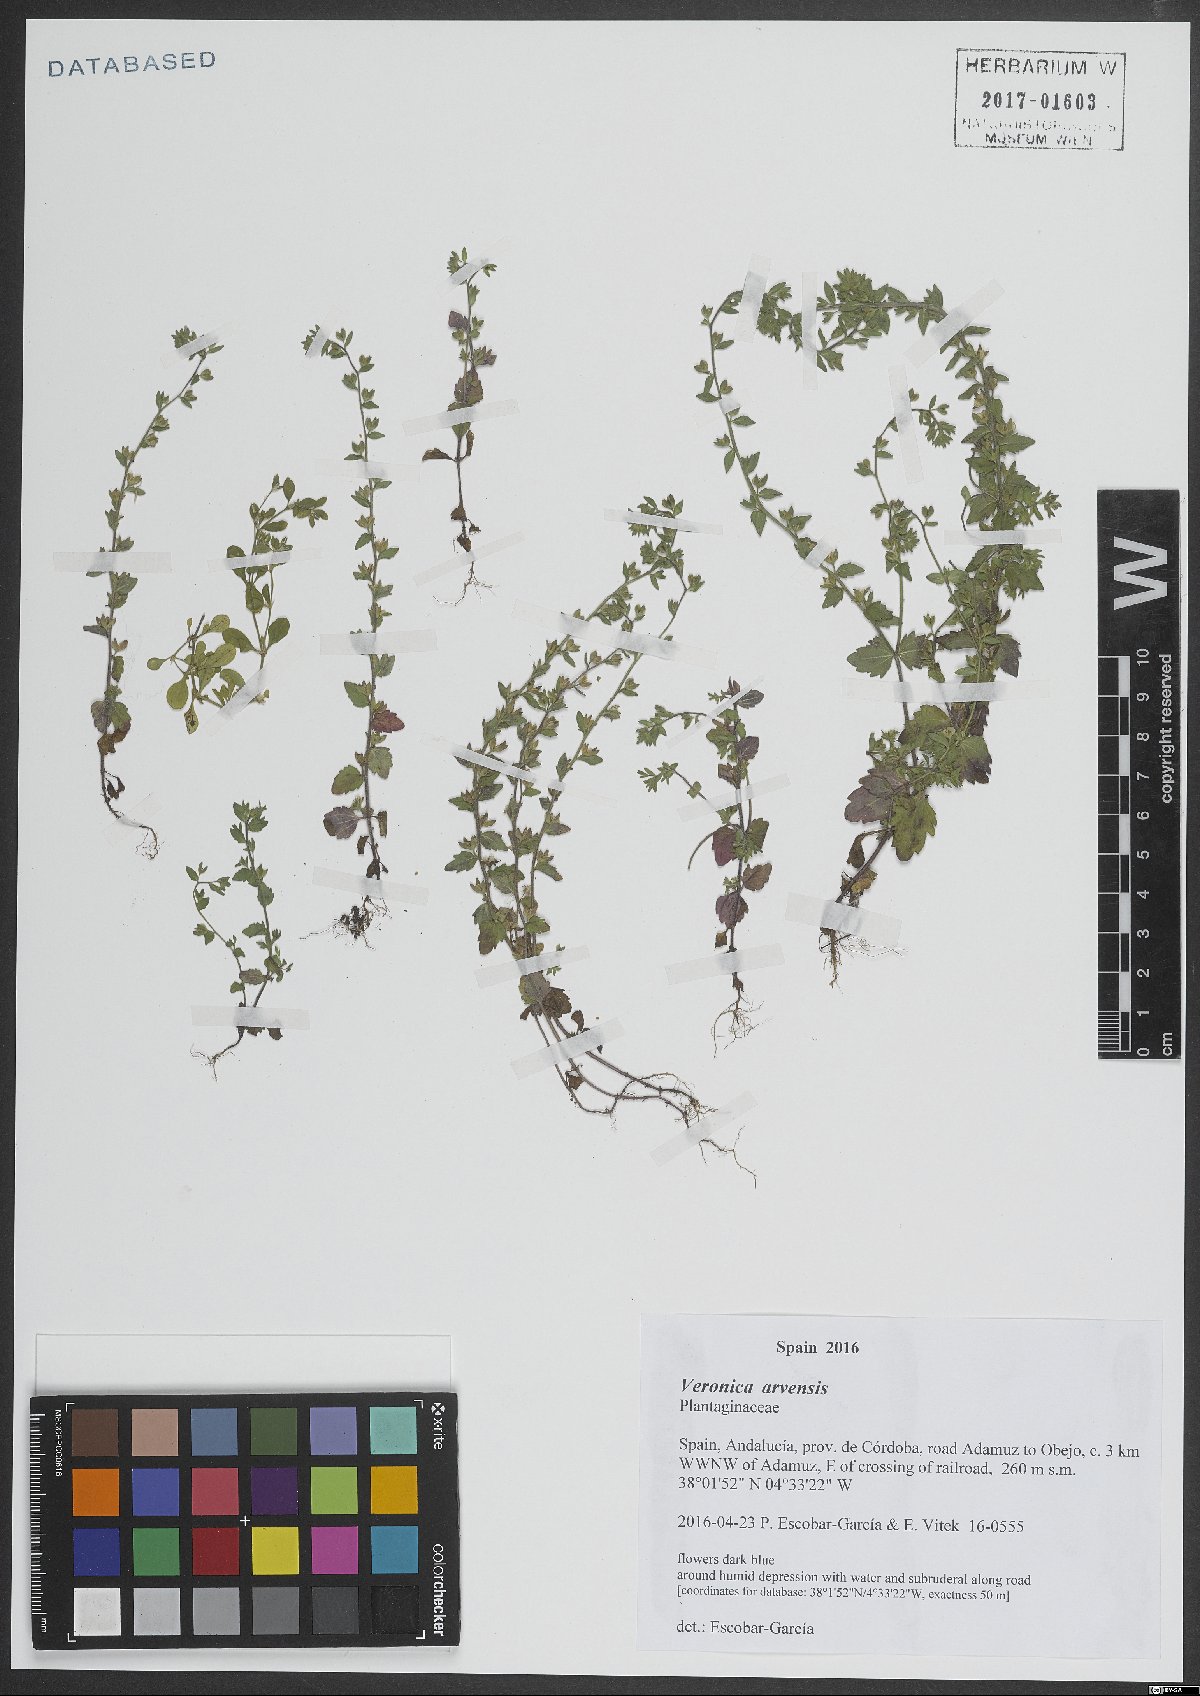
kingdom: Plantae
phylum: Tracheophyta
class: Magnoliopsida
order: Lamiales
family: Plantaginaceae
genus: Veronica
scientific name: Veronica arvensis
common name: Corn speedwell
